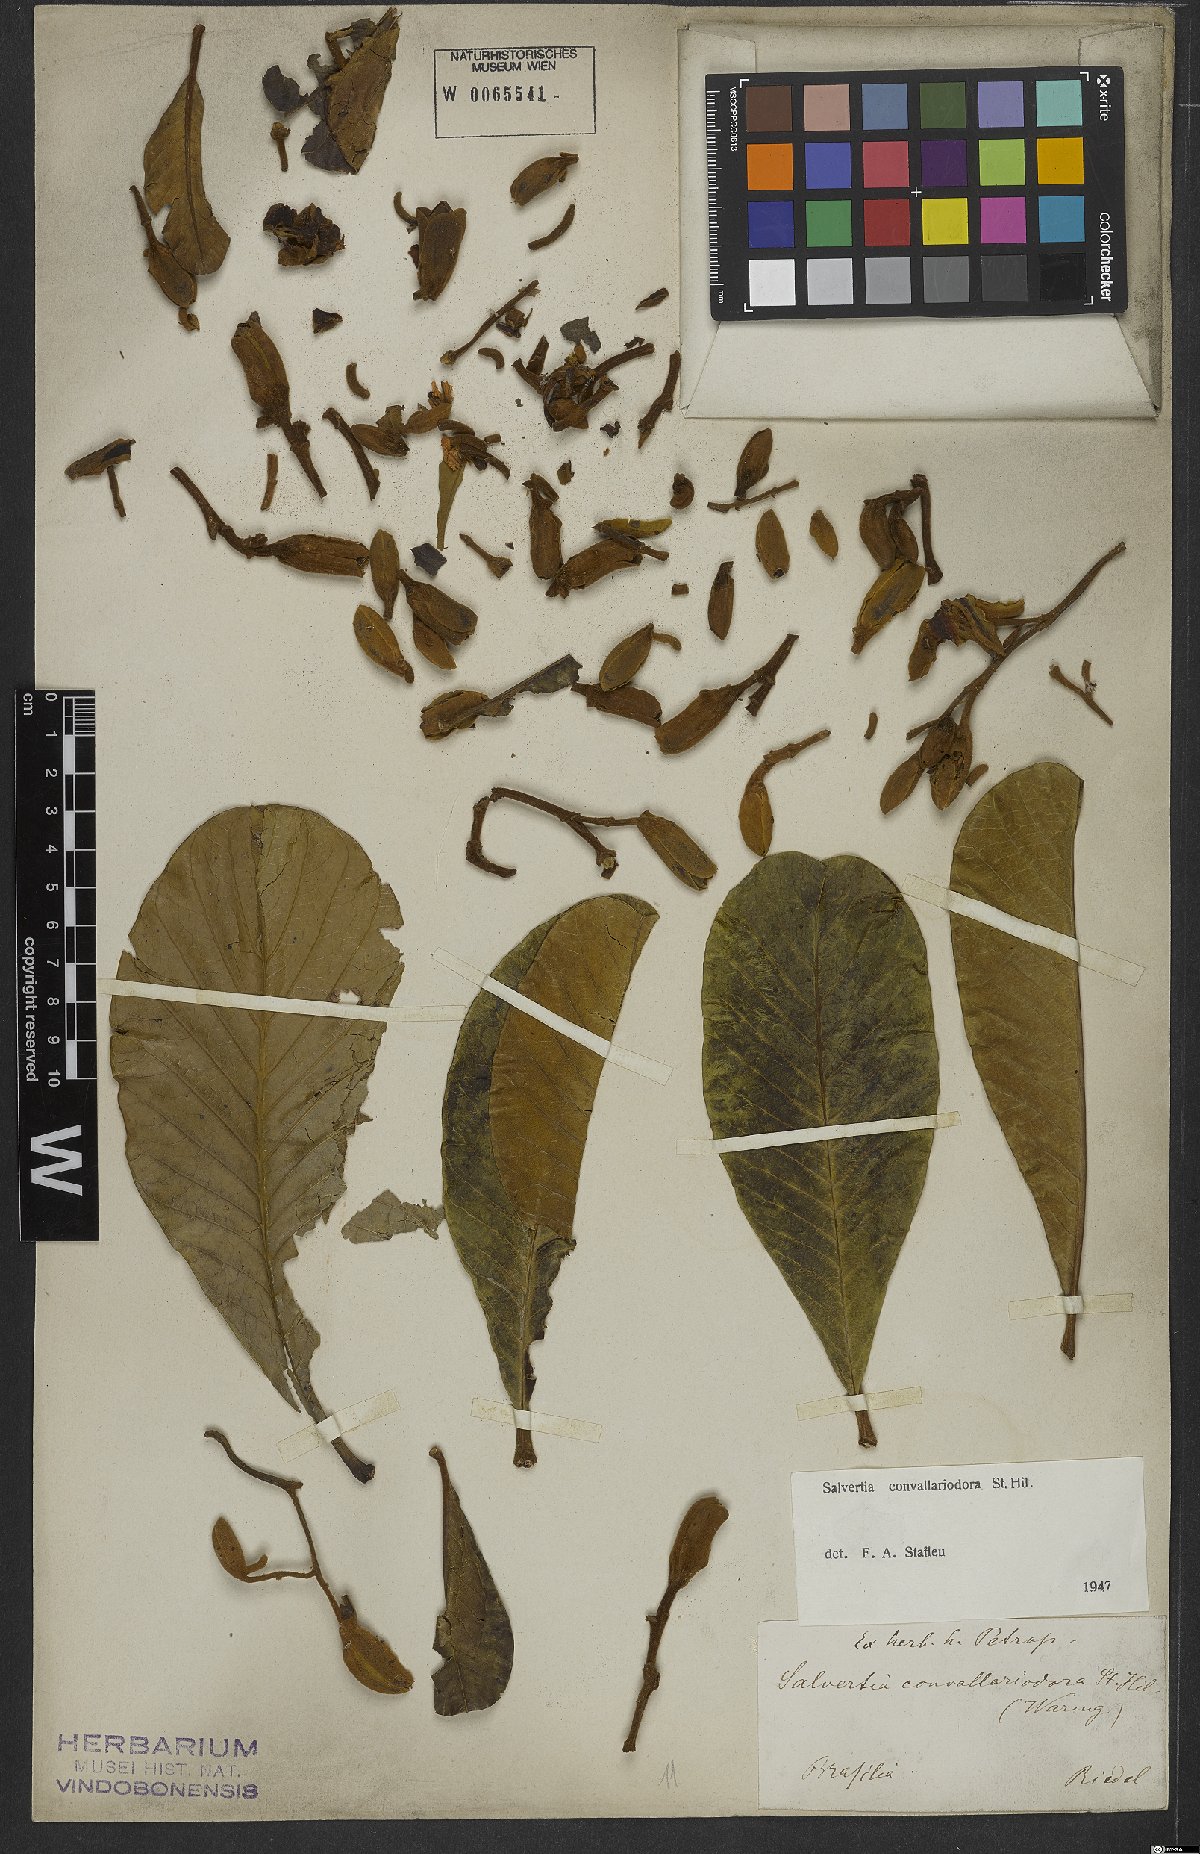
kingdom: Plantae
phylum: Tracheophyta
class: Magnoliopsida
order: Myrtales
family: Vochysiaceae
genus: Salvertia
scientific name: Salvertia convallariodora
